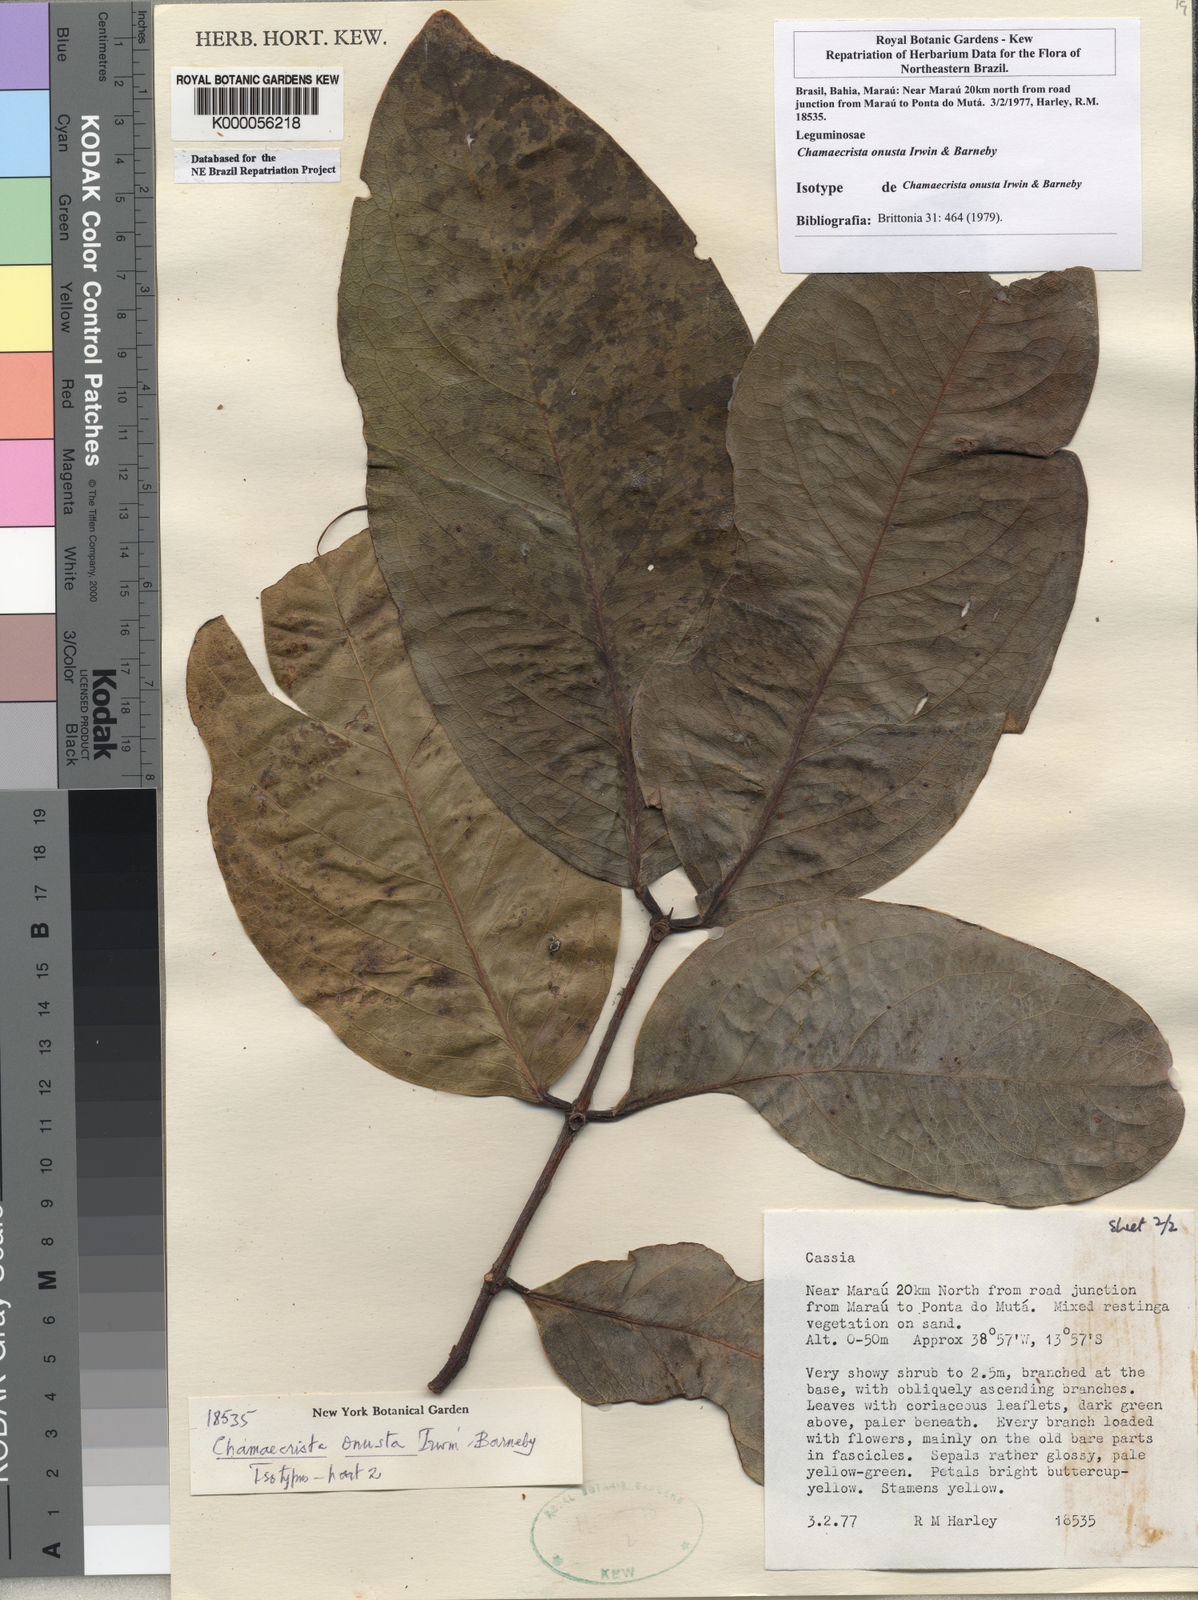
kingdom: Plantae
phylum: Tracheophyta
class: Magnoliopsida
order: Fabales
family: Fabaceae
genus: Chamaecrista
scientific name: Chamaecrista onusta
